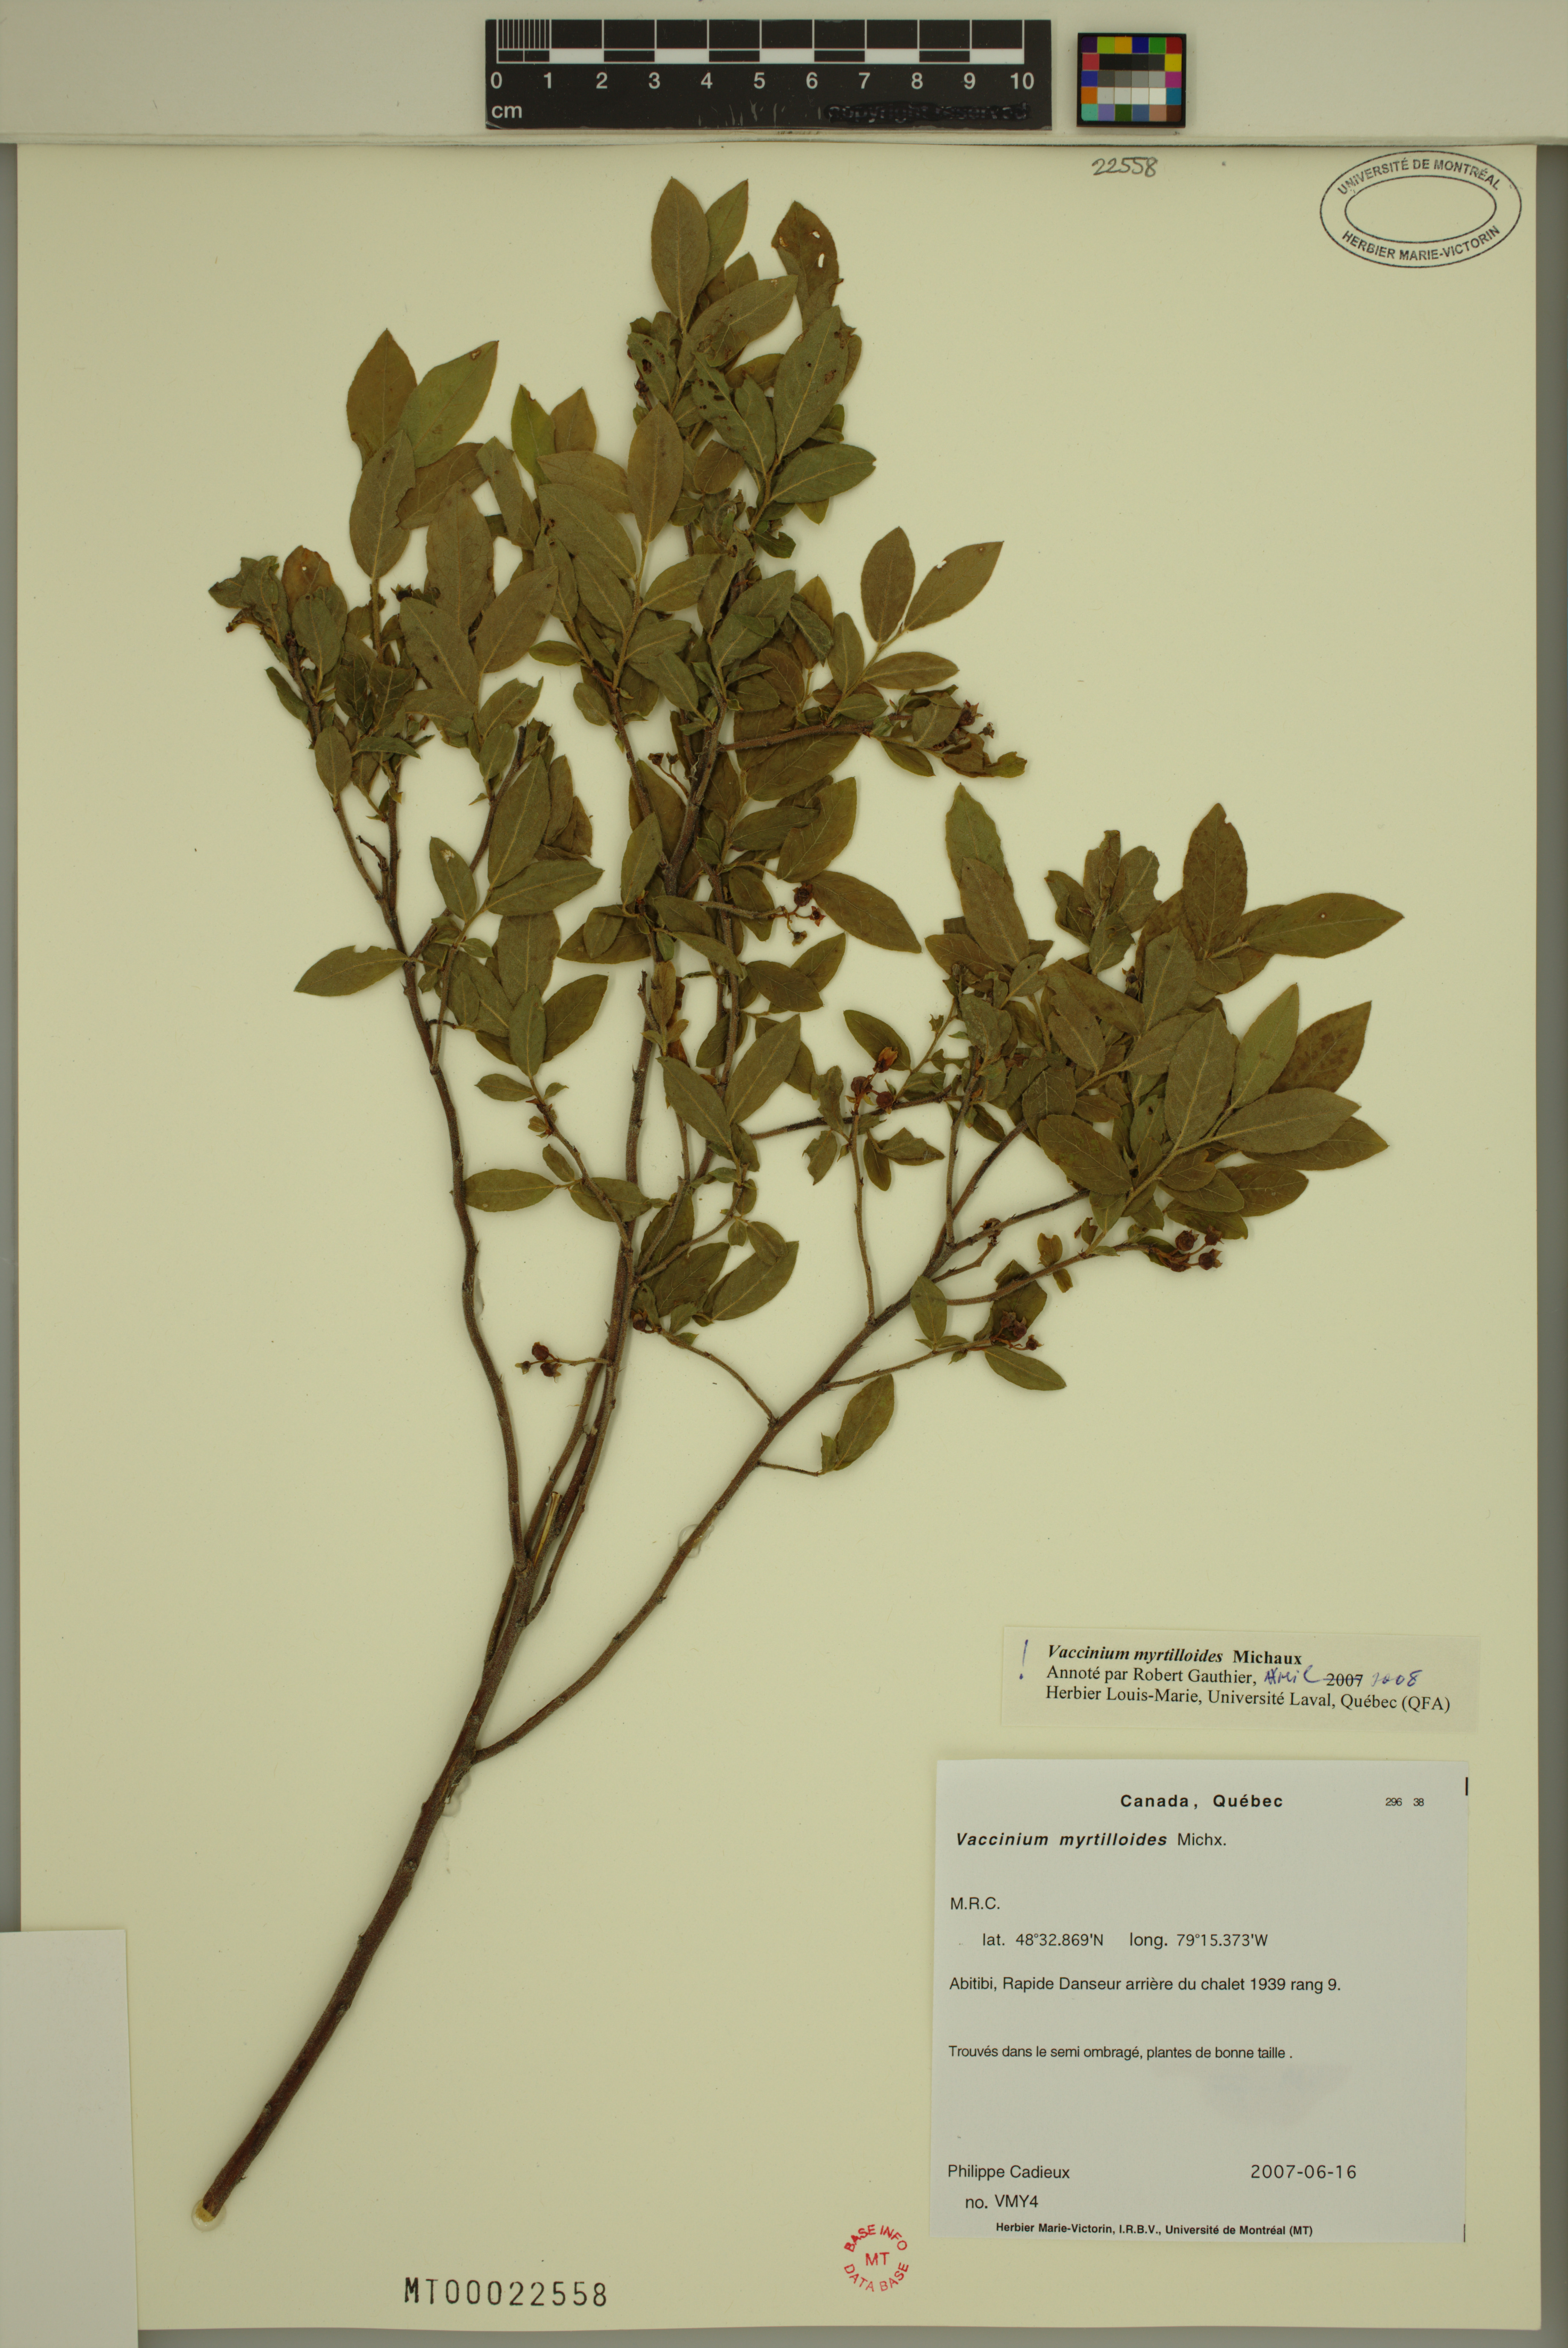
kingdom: Plantae
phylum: Tracheophyta
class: Magnoliopsida
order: Ericales
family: Ericaceae
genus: Vaccinium
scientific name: Vaccinium myrtilloides
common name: Canada blueberry
